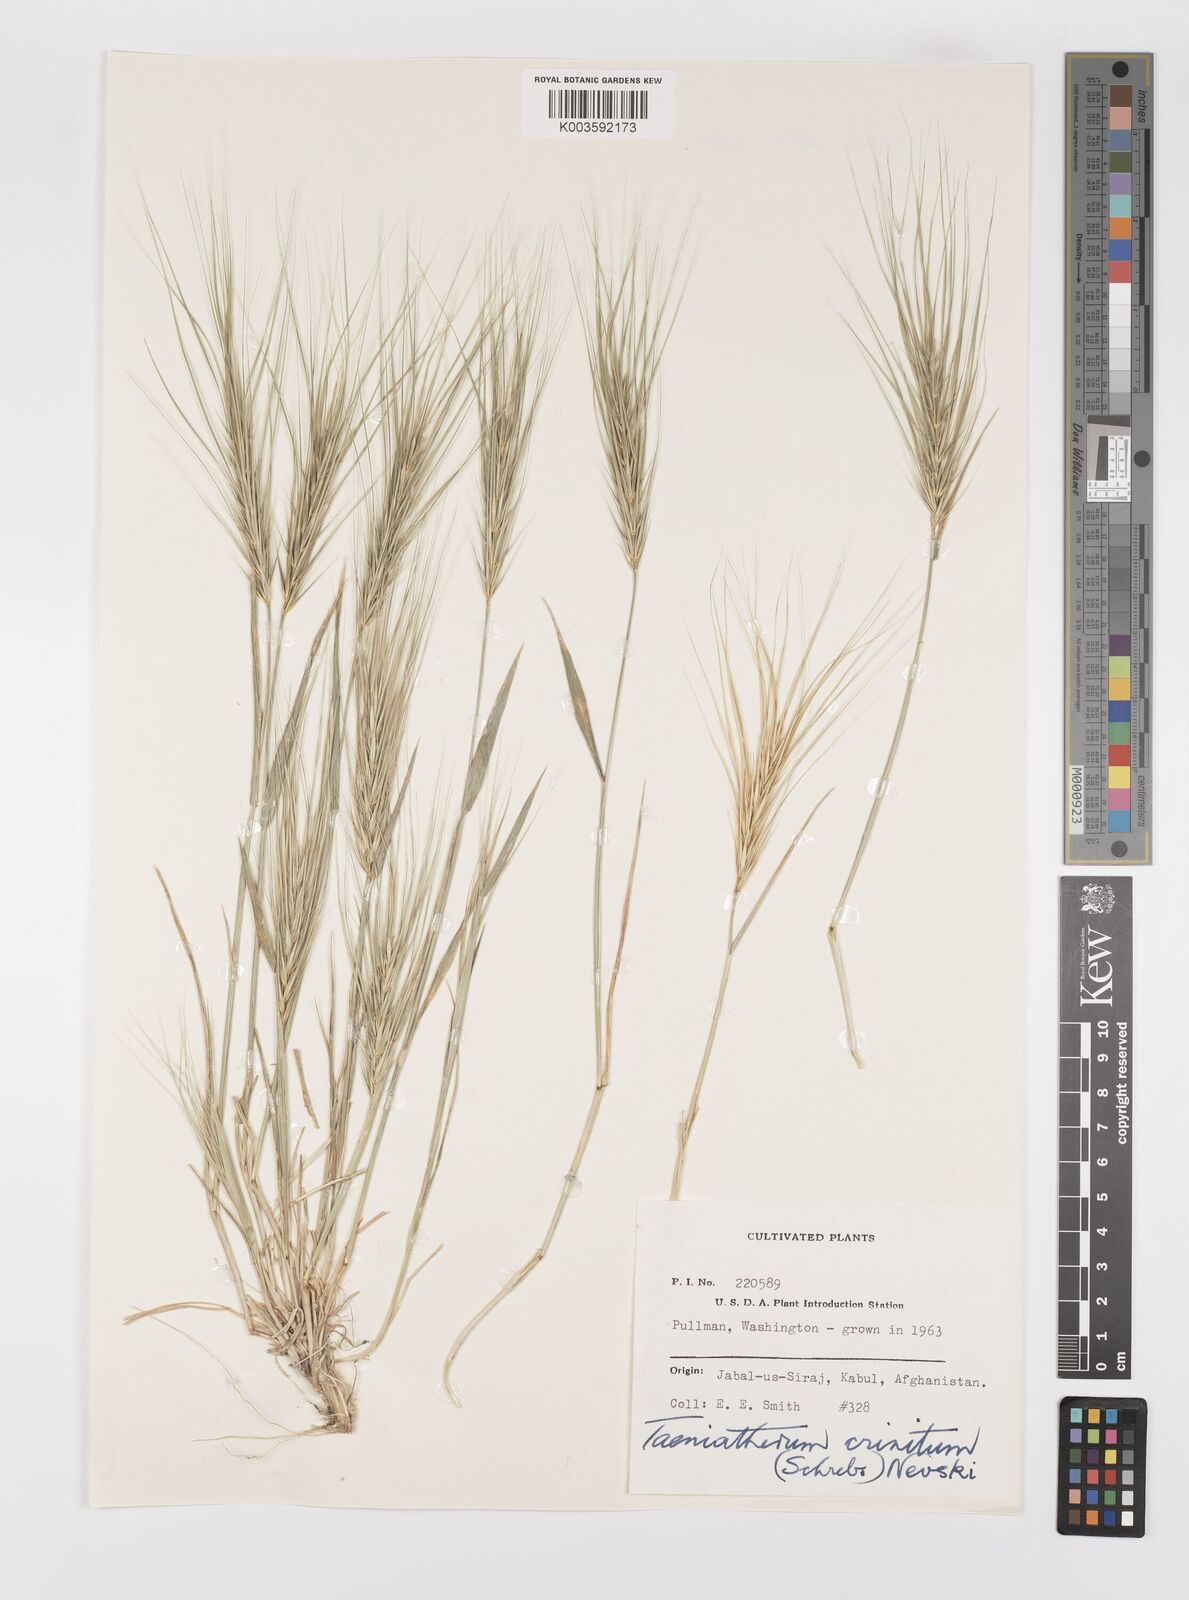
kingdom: Plantae
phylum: Tracheophyta
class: Liliopsida
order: Poales
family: Poaceae
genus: Taeniatherum
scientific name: Taeniatherum caput-medusae
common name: Medusahead
